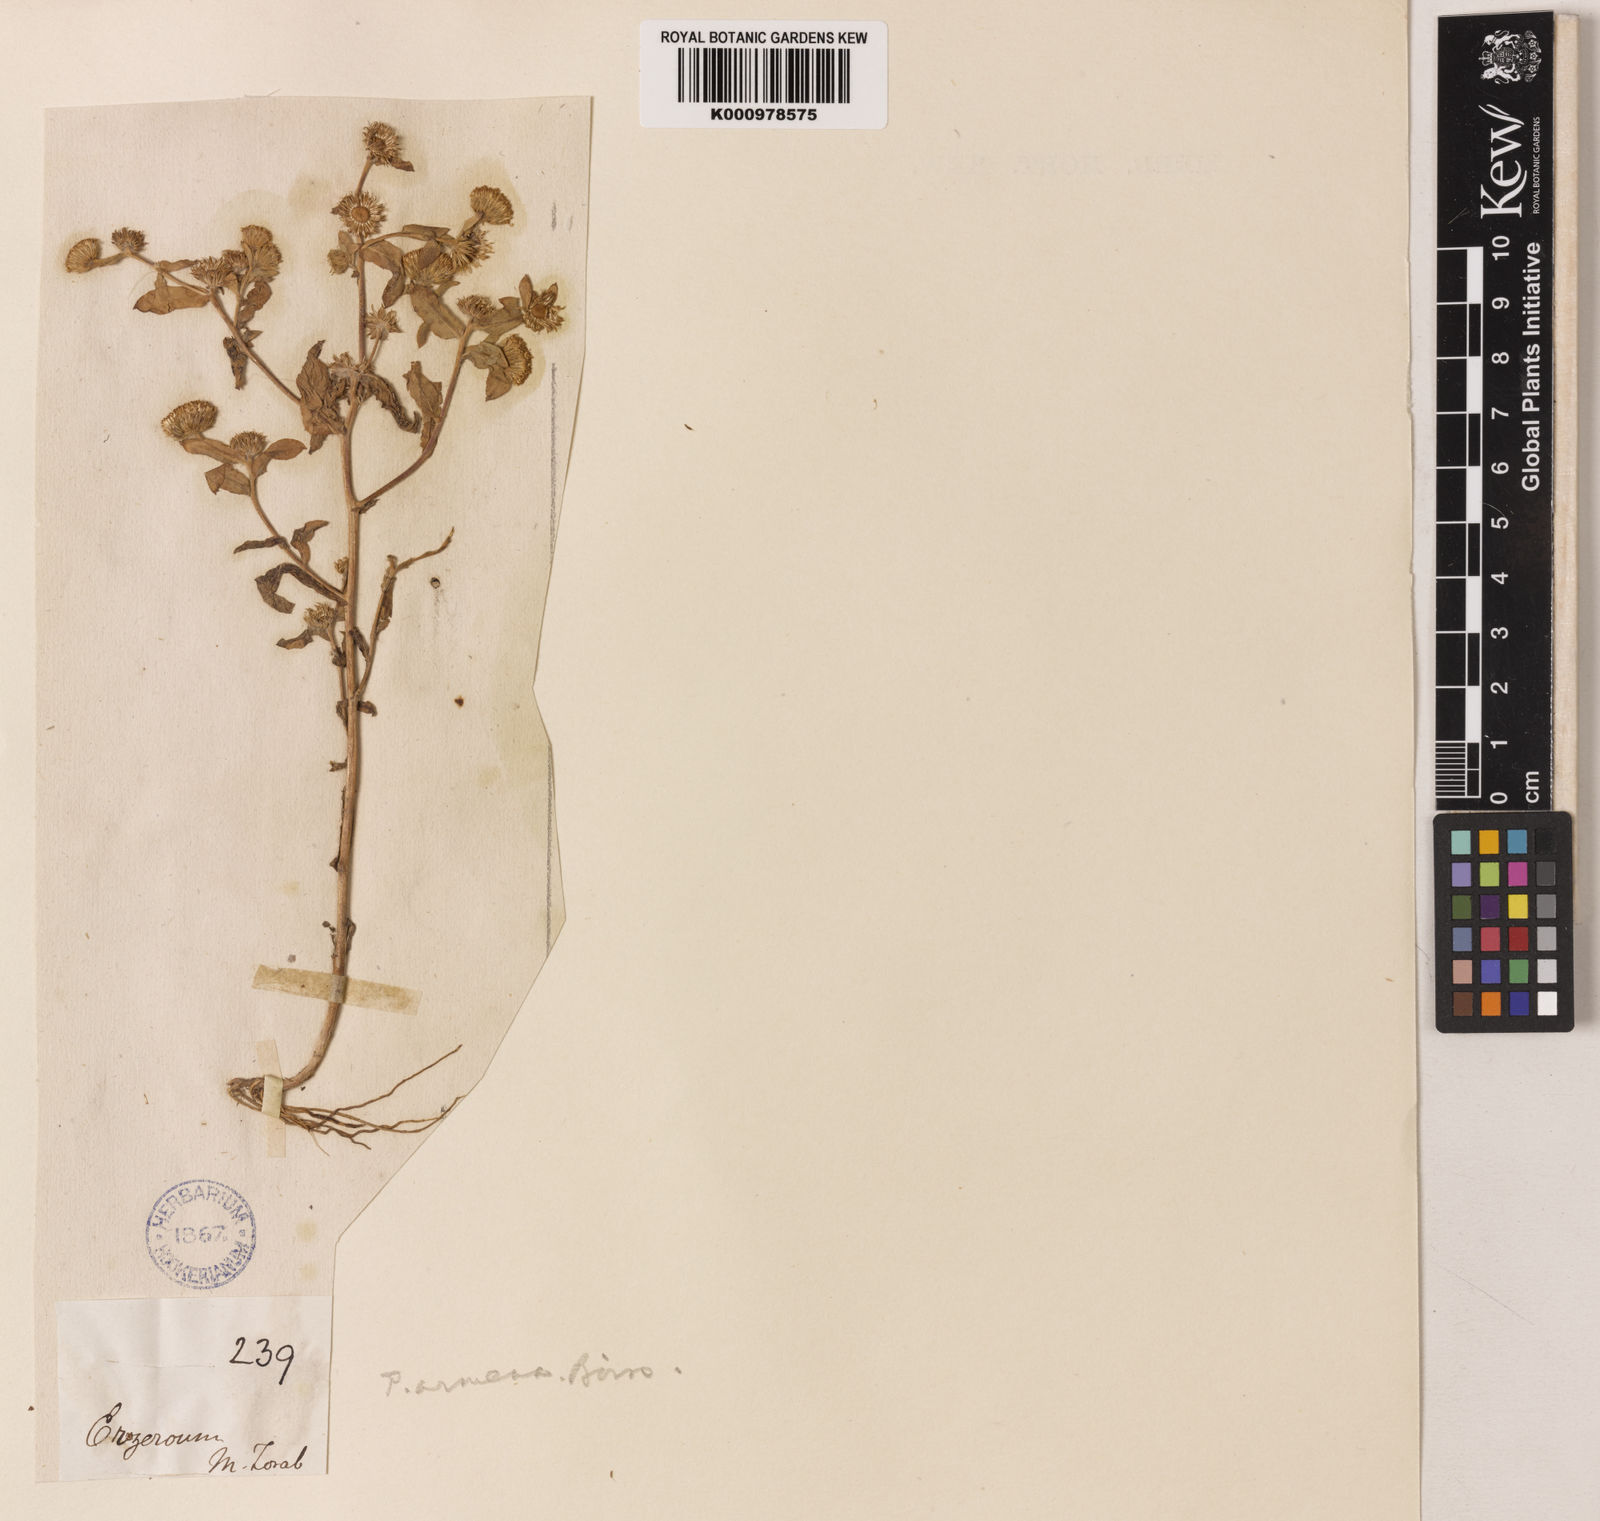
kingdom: Plantae
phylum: Tracheophyta
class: Magnoliopsida
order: Asterales
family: Asteraceae
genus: Pulicaria
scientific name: Pulicaria armena
